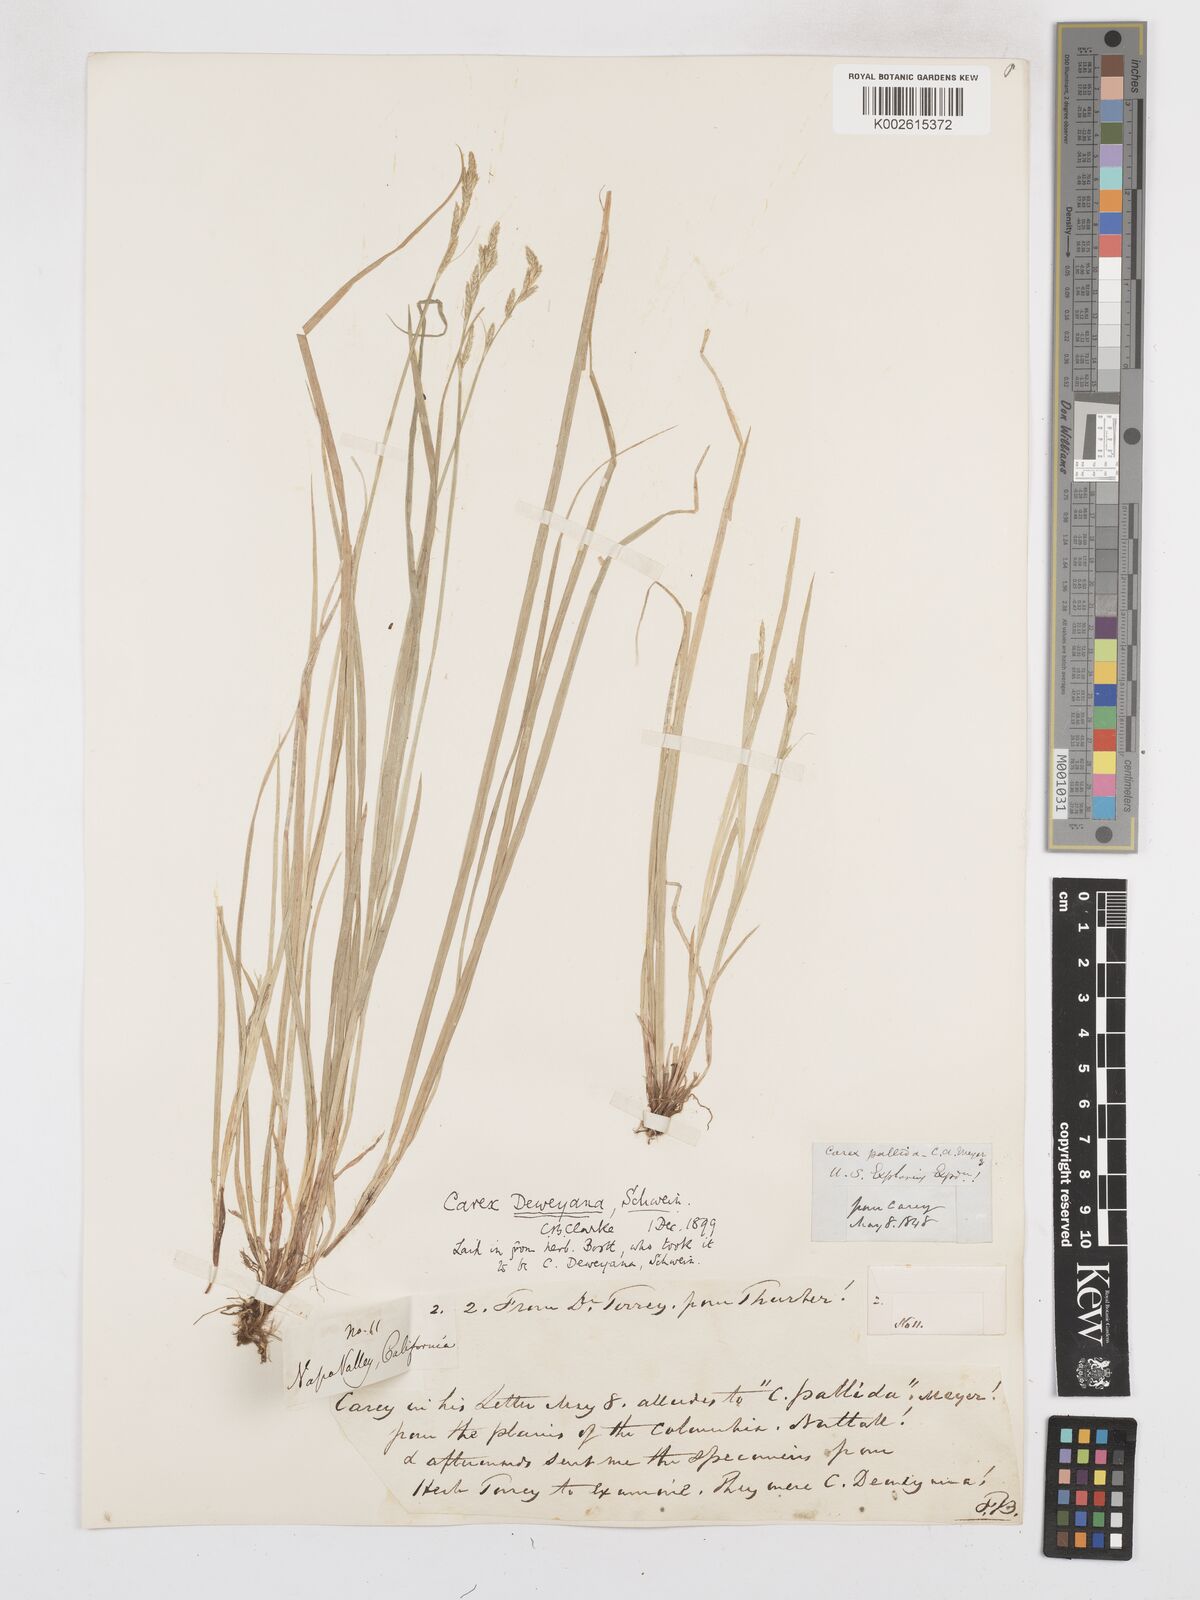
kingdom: Plantae
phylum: Tracheophyta
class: Liliopsida
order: Poales
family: Cyperaceae
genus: Carex
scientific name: Carex deweyana
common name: Dewey's sedge
